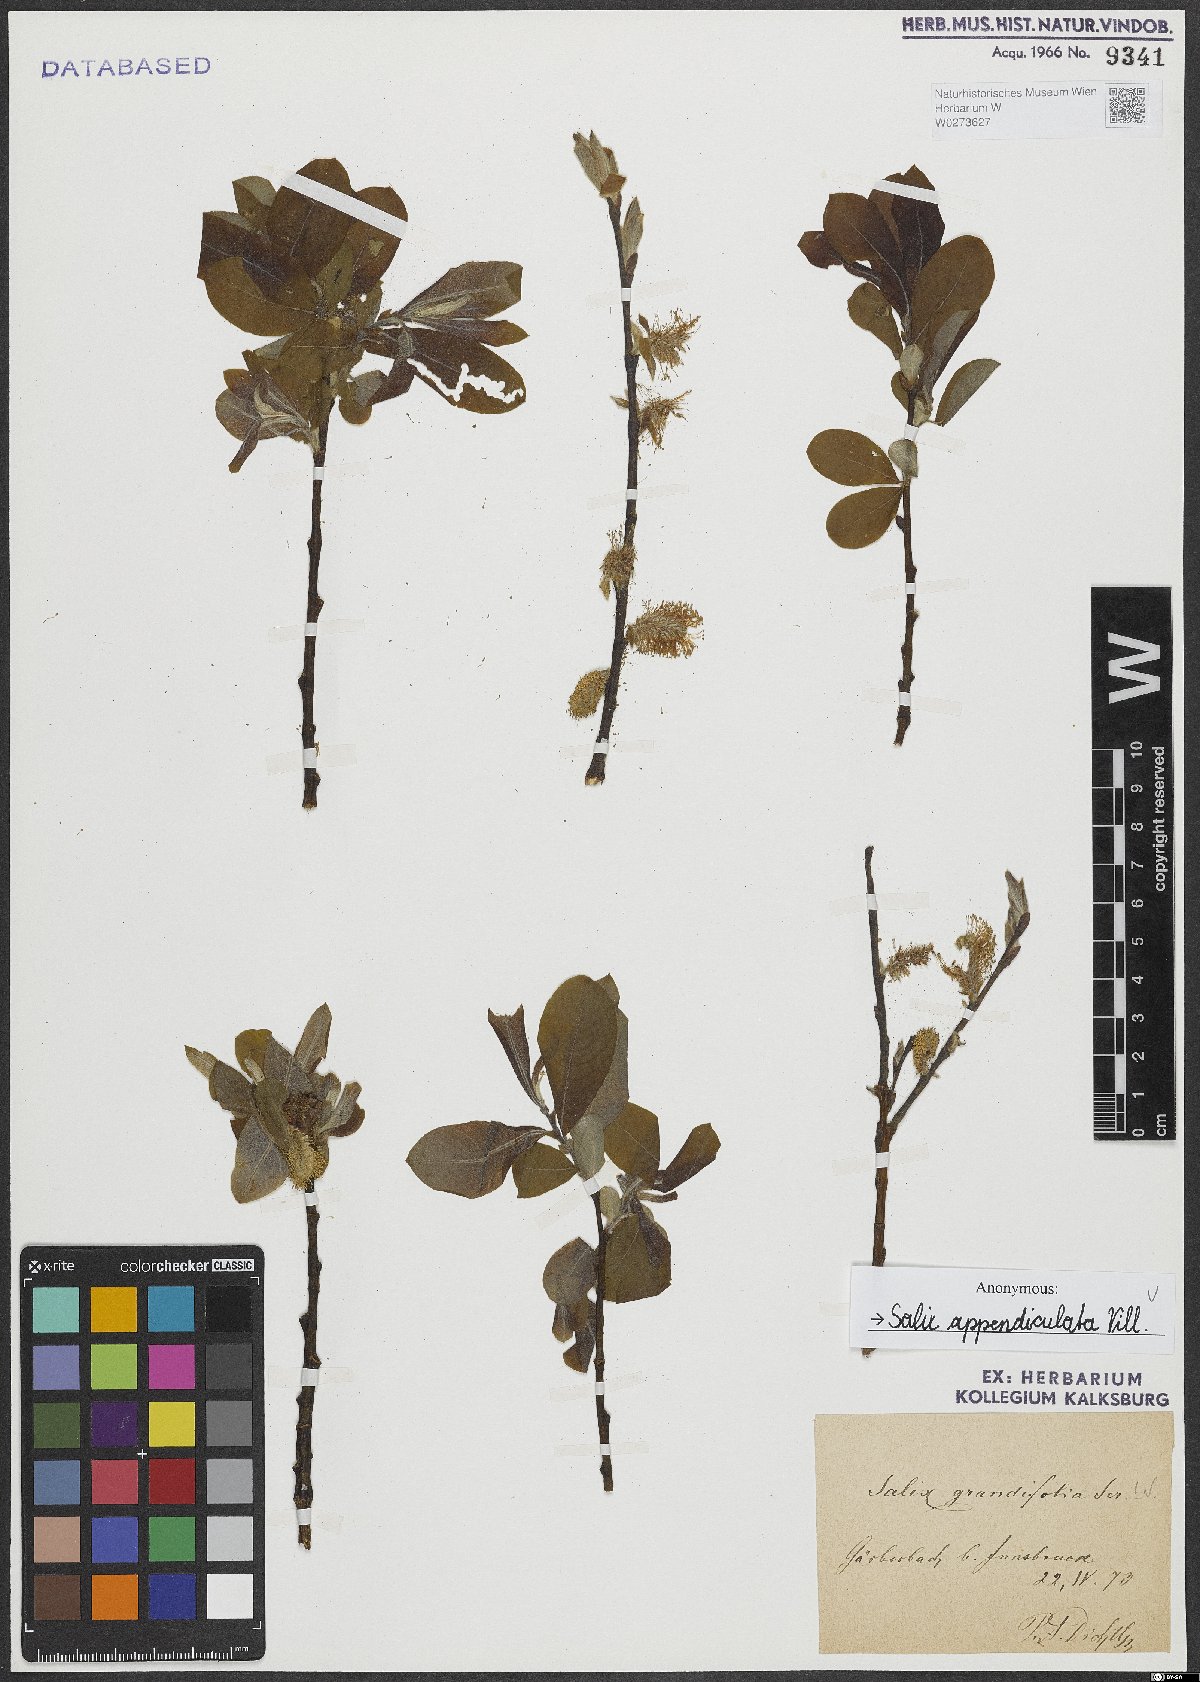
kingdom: Plantae
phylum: Tracheophyta
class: Magnoliopsida
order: Malpighiales
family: Salicaceae
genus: Salix
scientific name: Salix appendiculata
